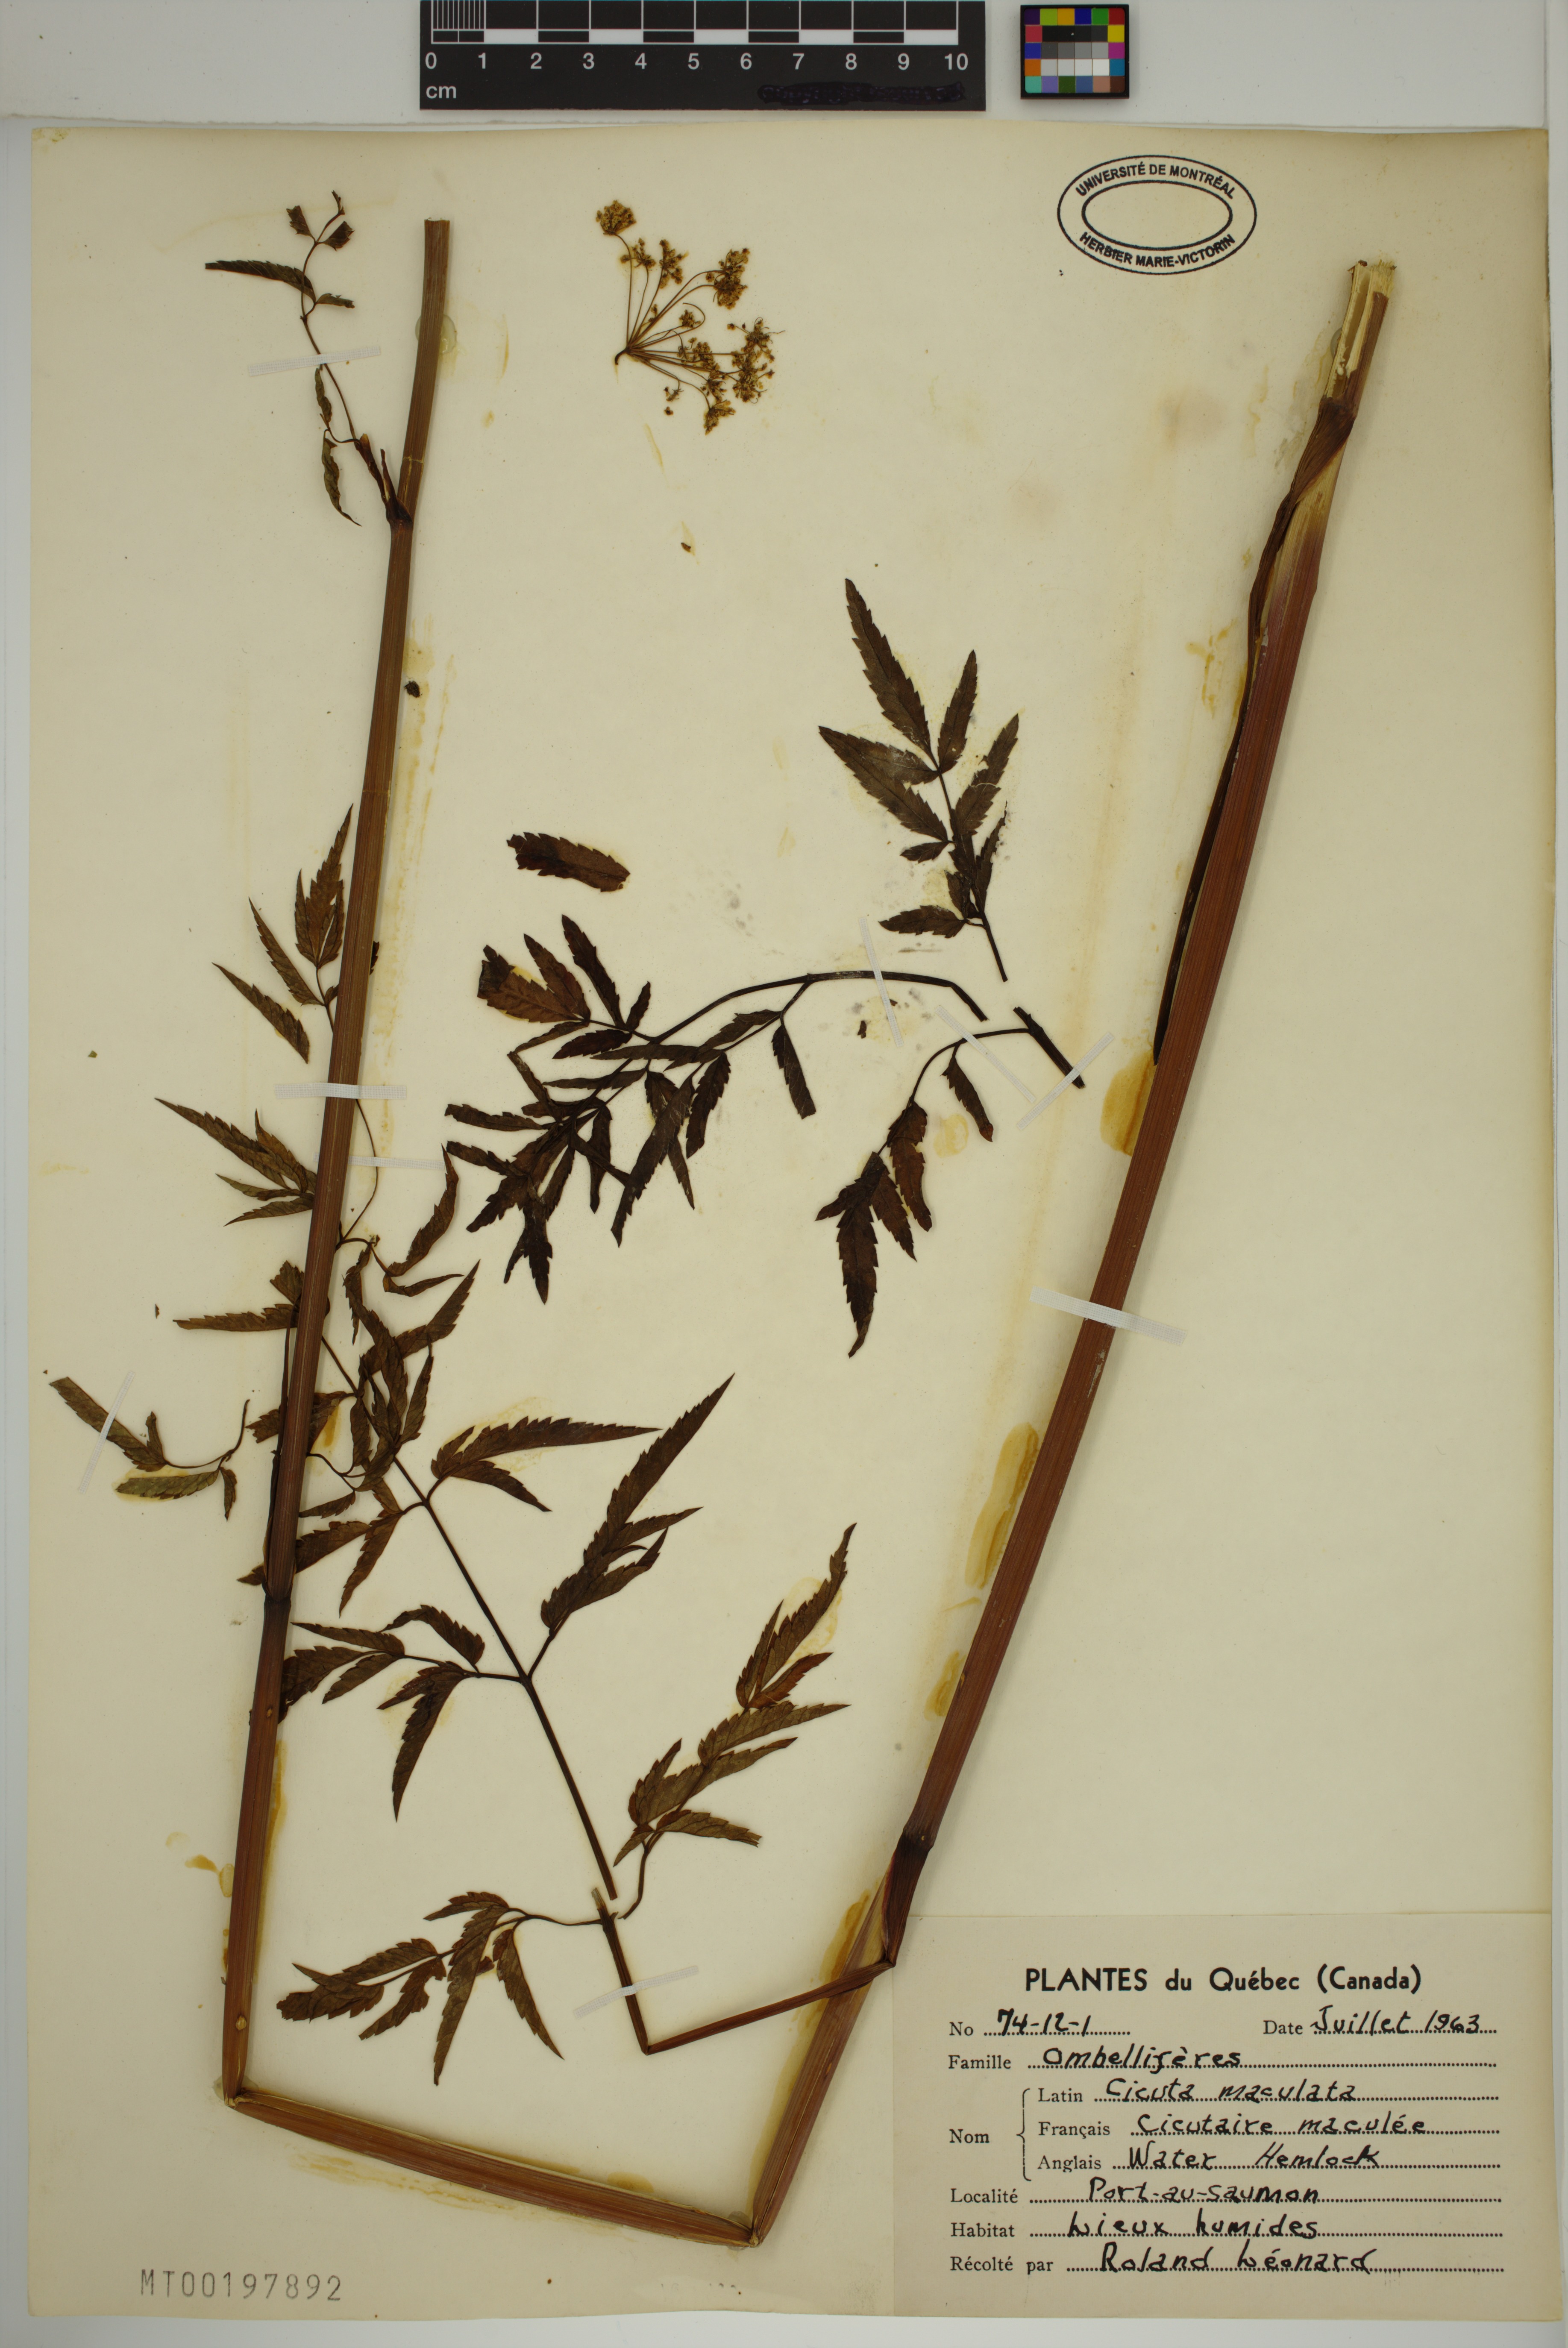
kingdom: Plantae
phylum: Tracheophyta
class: Magnoliopsida
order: Apiales
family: Apiaceae
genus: Cicuta
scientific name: Cicuta maculata
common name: Spotted cowbane
